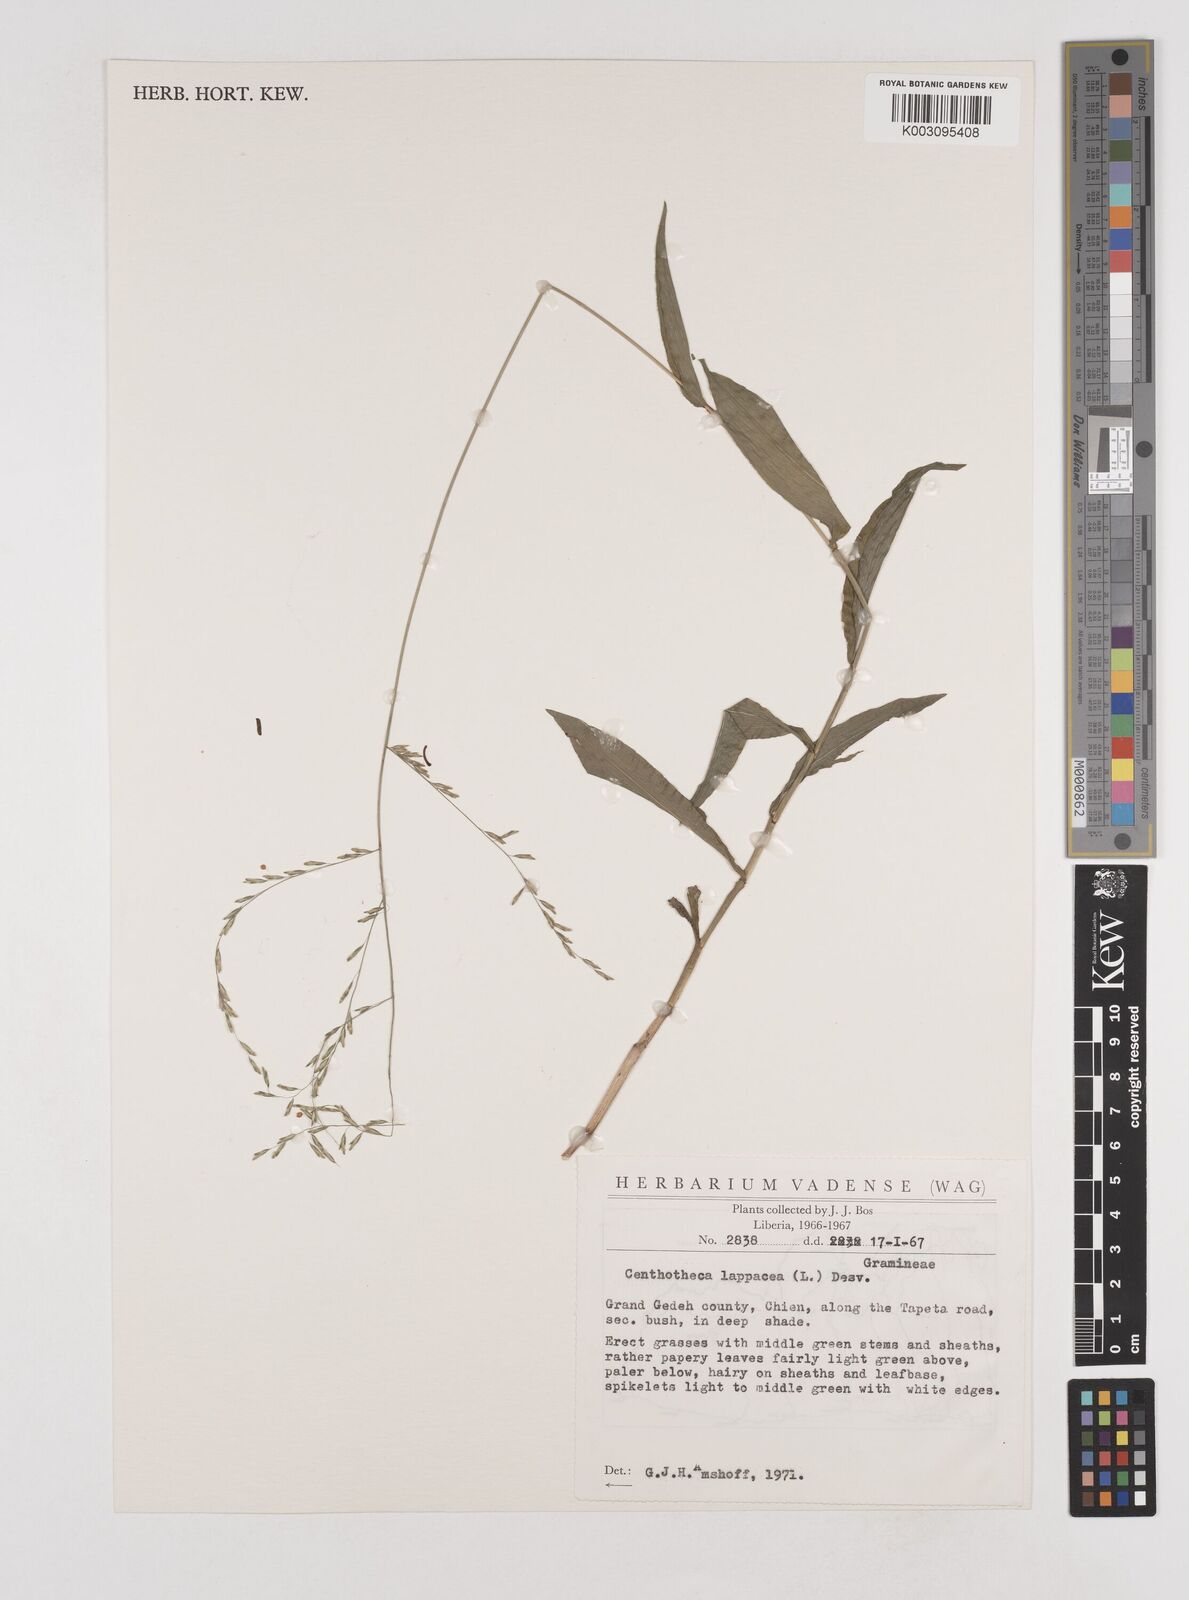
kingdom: Plantae
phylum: Tracheophyta
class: Liliopsida
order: Poales
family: Poaceae
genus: Centotheca
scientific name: Centotheca lappacea
